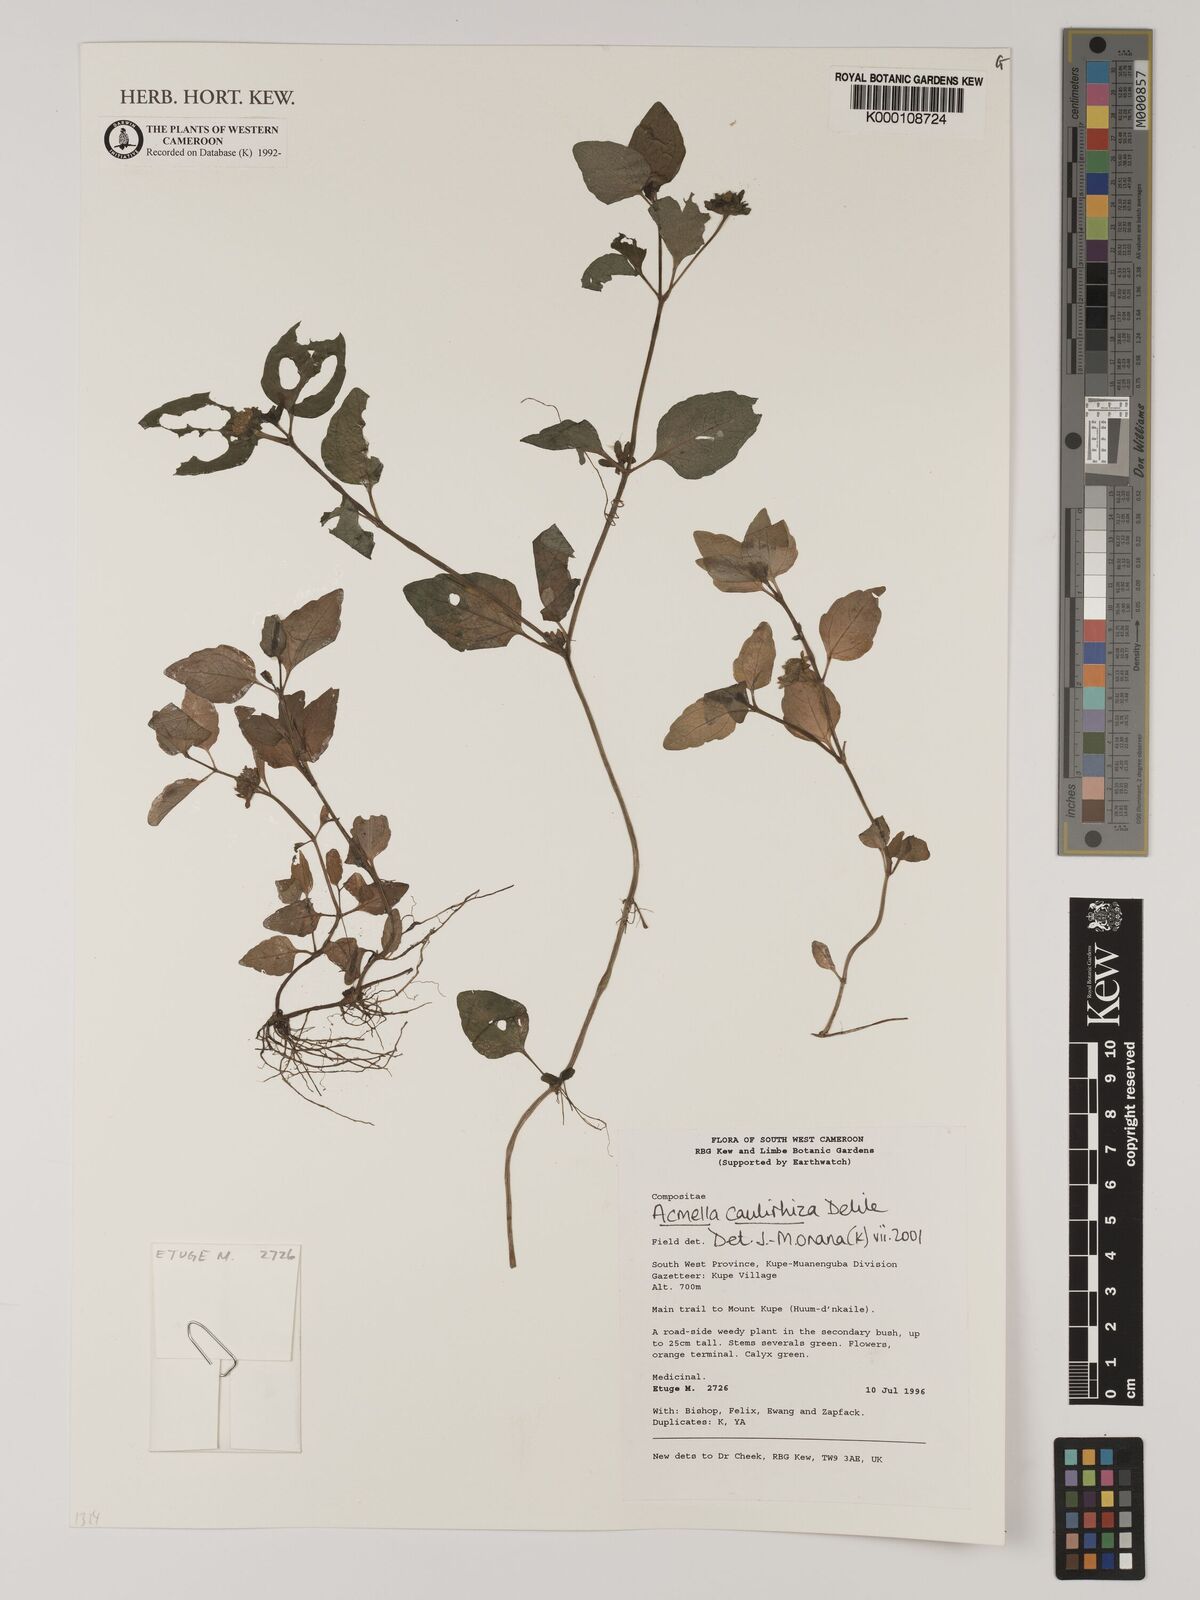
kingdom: Plantae
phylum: Tracheophyta
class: Magnoliopsida
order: Asterales
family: Asteraceae
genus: Acmella
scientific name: Acmella caulirhiza
